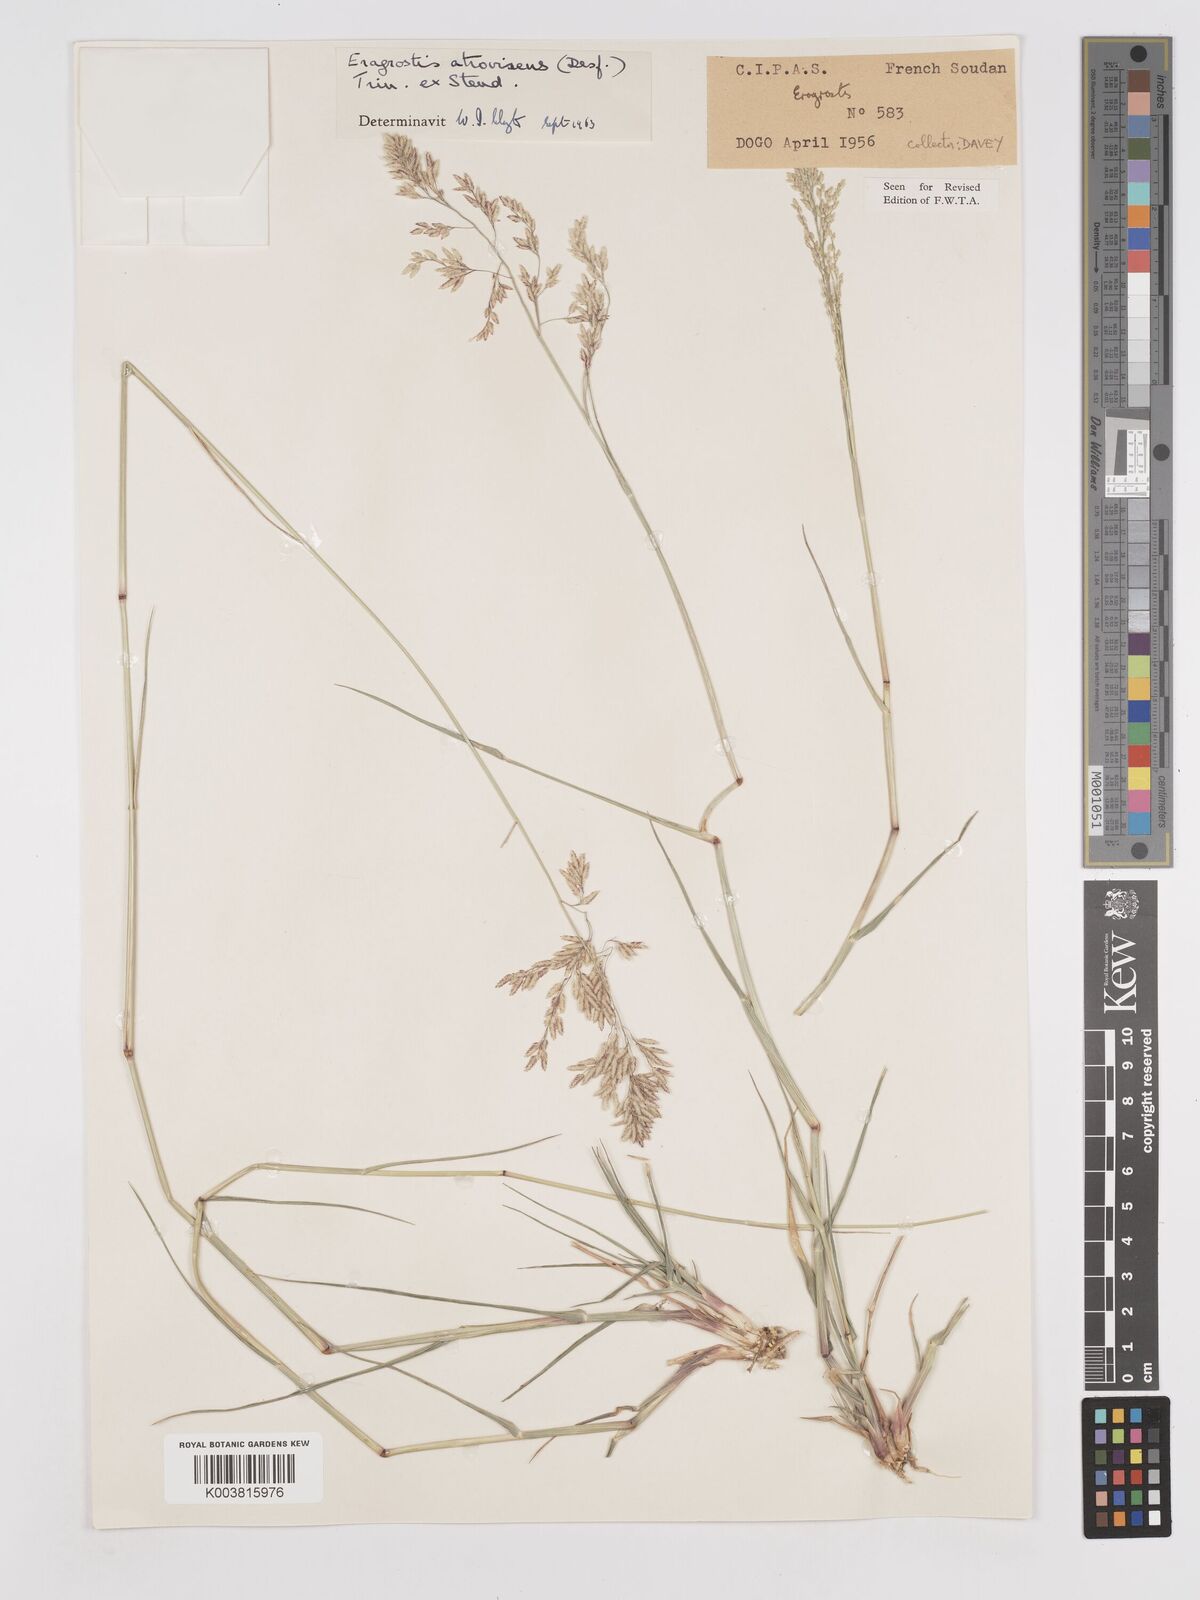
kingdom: Plantae
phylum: Tracheophyta
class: Liliopsida
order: Poales
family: Poaceae
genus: Eragrostis
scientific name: Eragrostis atrovirens
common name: Thalia lovegrass
